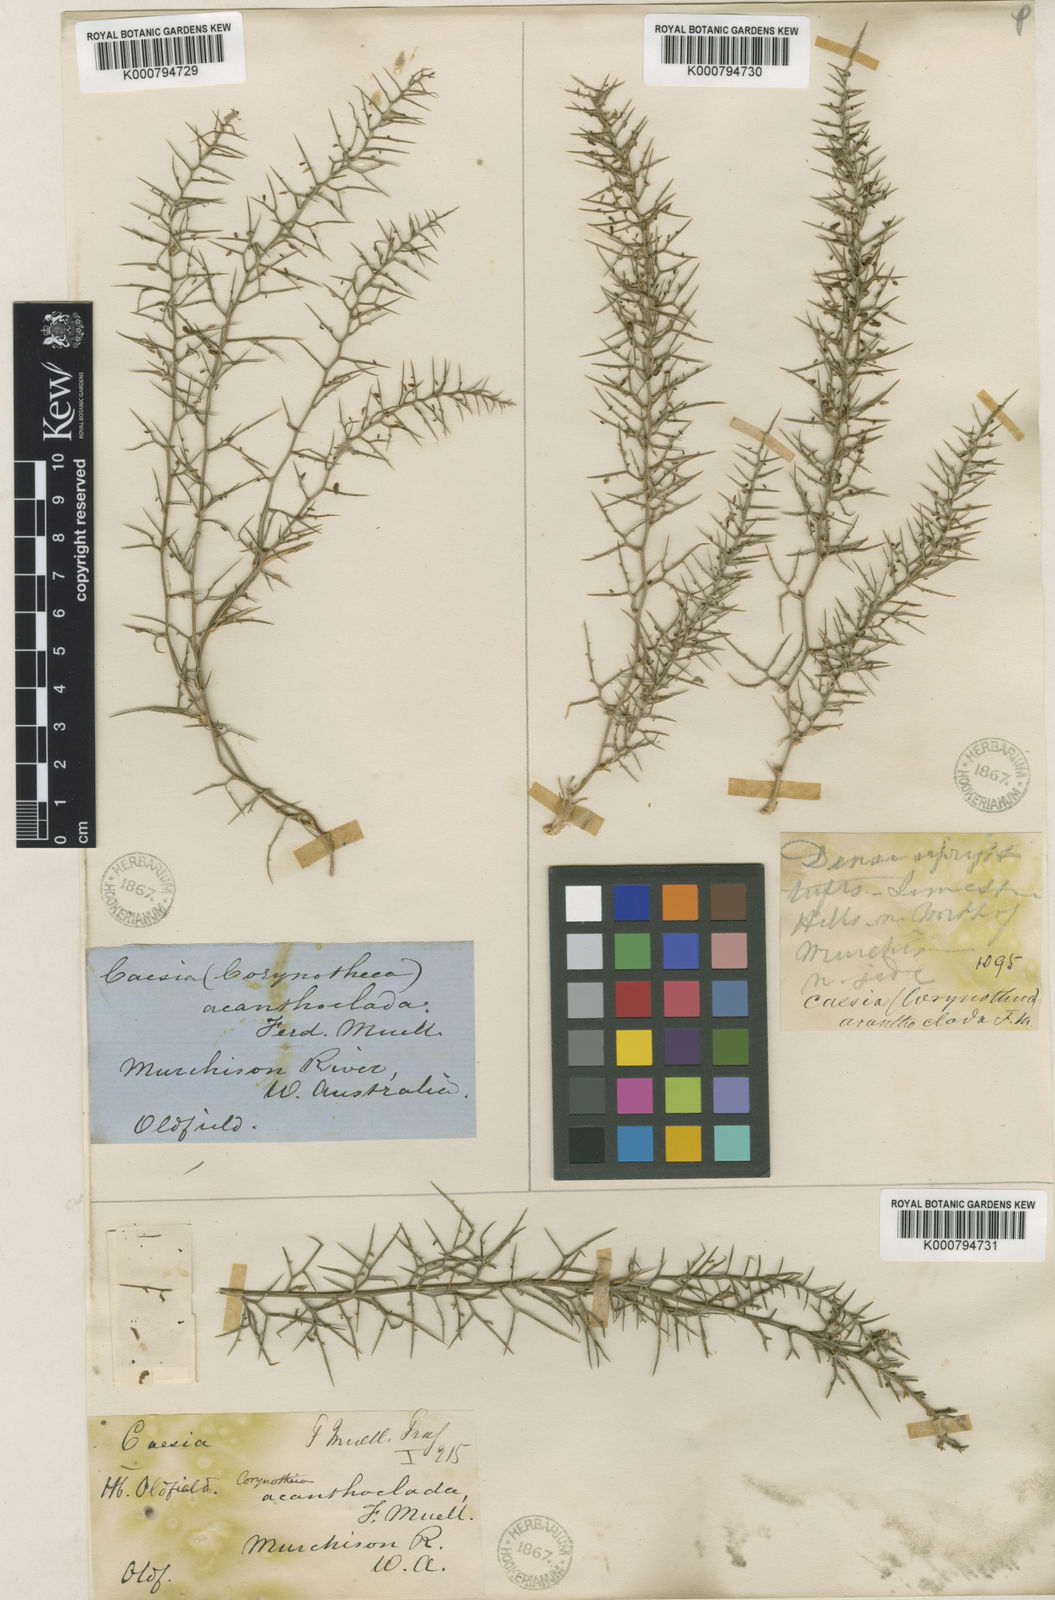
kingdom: Plantae
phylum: Tracheophyta
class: Liliopsida
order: Asparagales
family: Asphodelaceae
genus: Corynotheca
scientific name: Corynotheca
